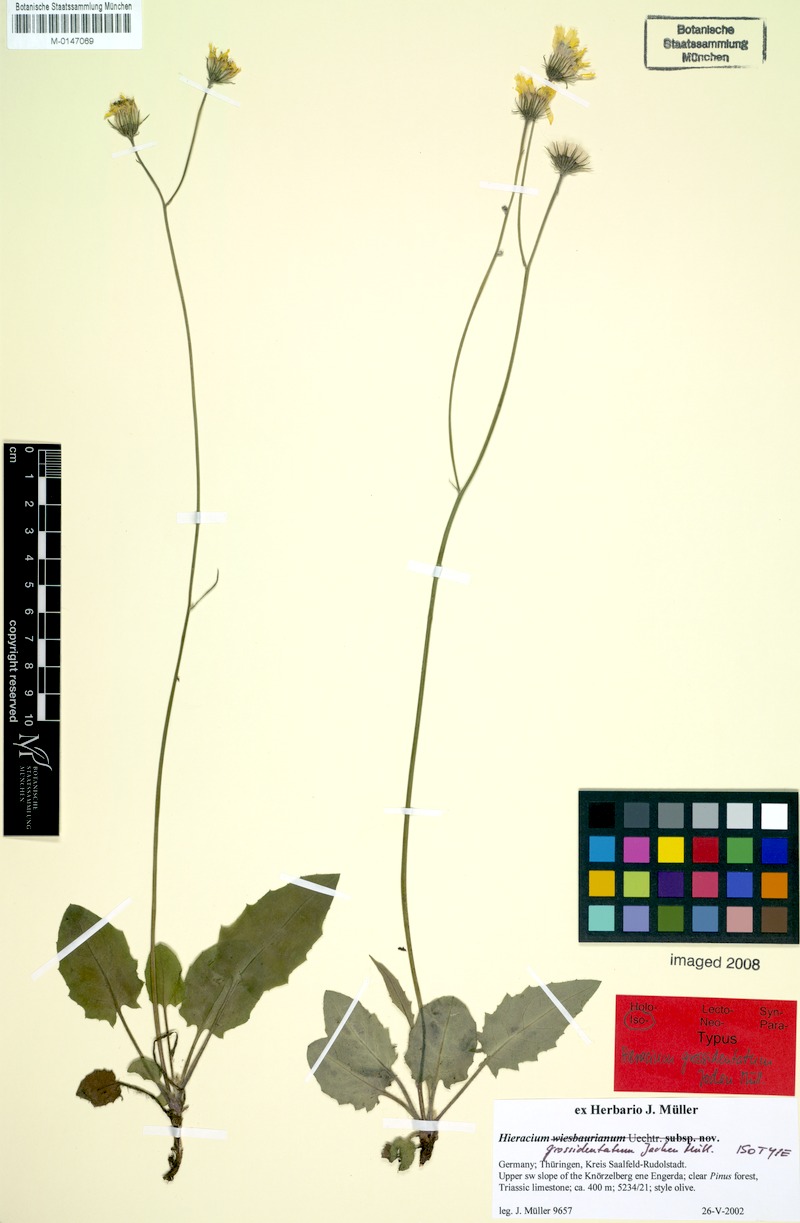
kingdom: Plantae
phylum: Tracheophyta
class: Magnoliopsida
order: Asterales
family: Asteraceae
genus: Hieracium
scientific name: Hieracium hypochoeroides
